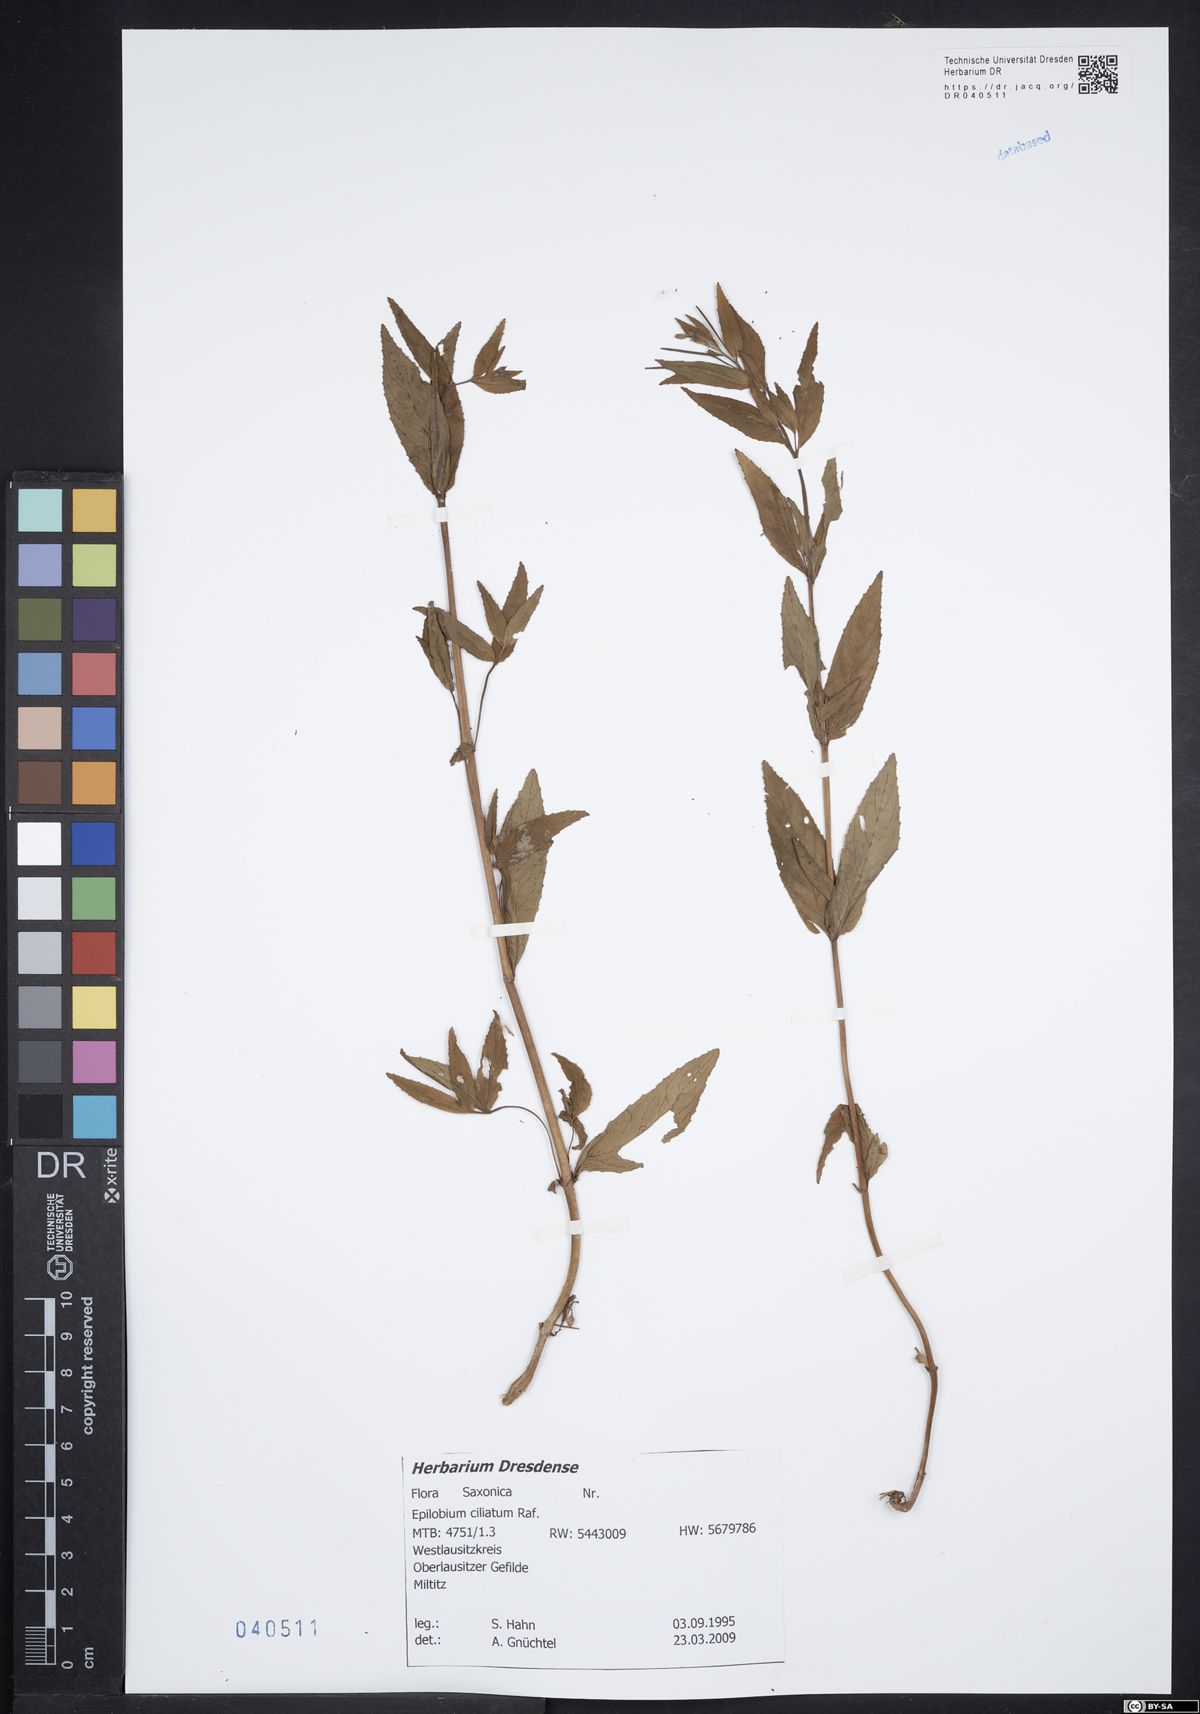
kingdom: Plantae
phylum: Tracheophyta
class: Magnoliopsida
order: Myrtales
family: Onagraceae
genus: Epilobium
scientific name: Epilobium ciliatum
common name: American willowherb
